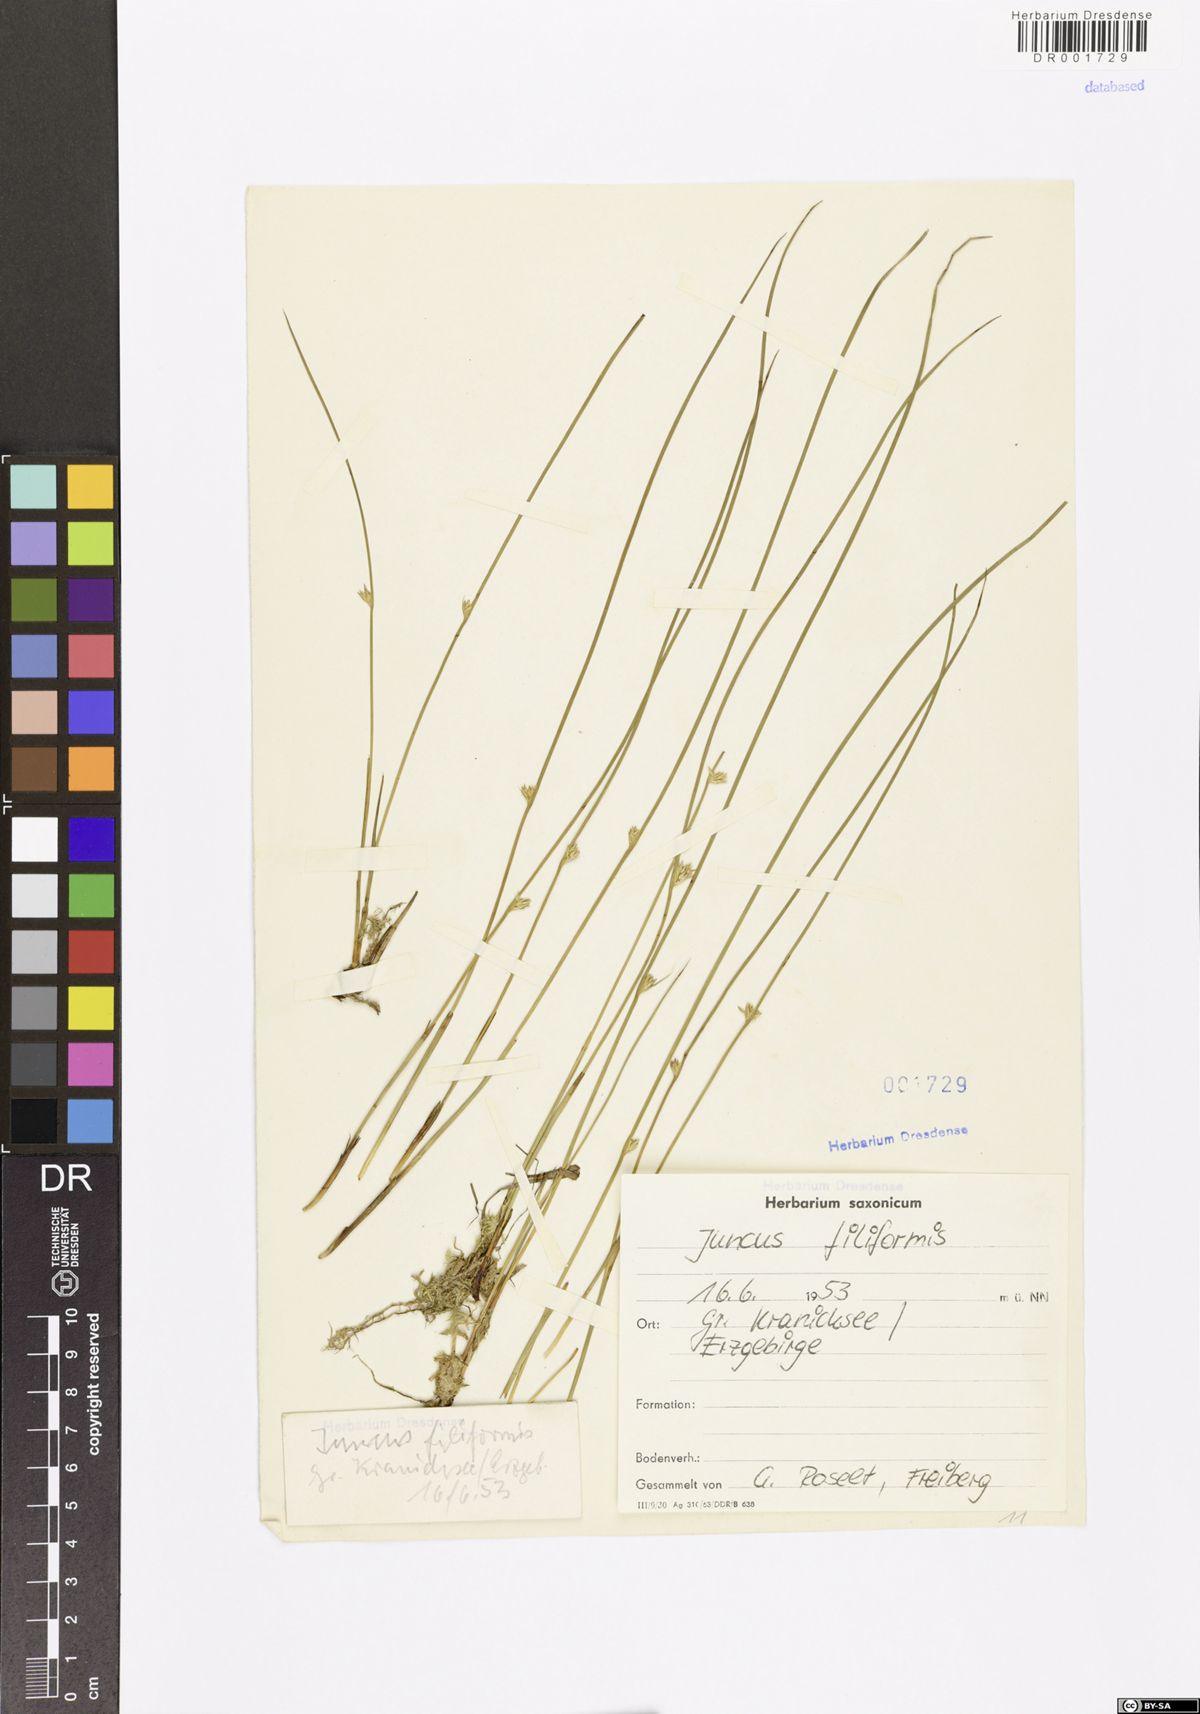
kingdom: Plantae
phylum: Tracheophyta
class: Liliopsida
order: Poales
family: Juncaceae
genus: Juncus
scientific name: Juncus filiformis
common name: Thread rush
